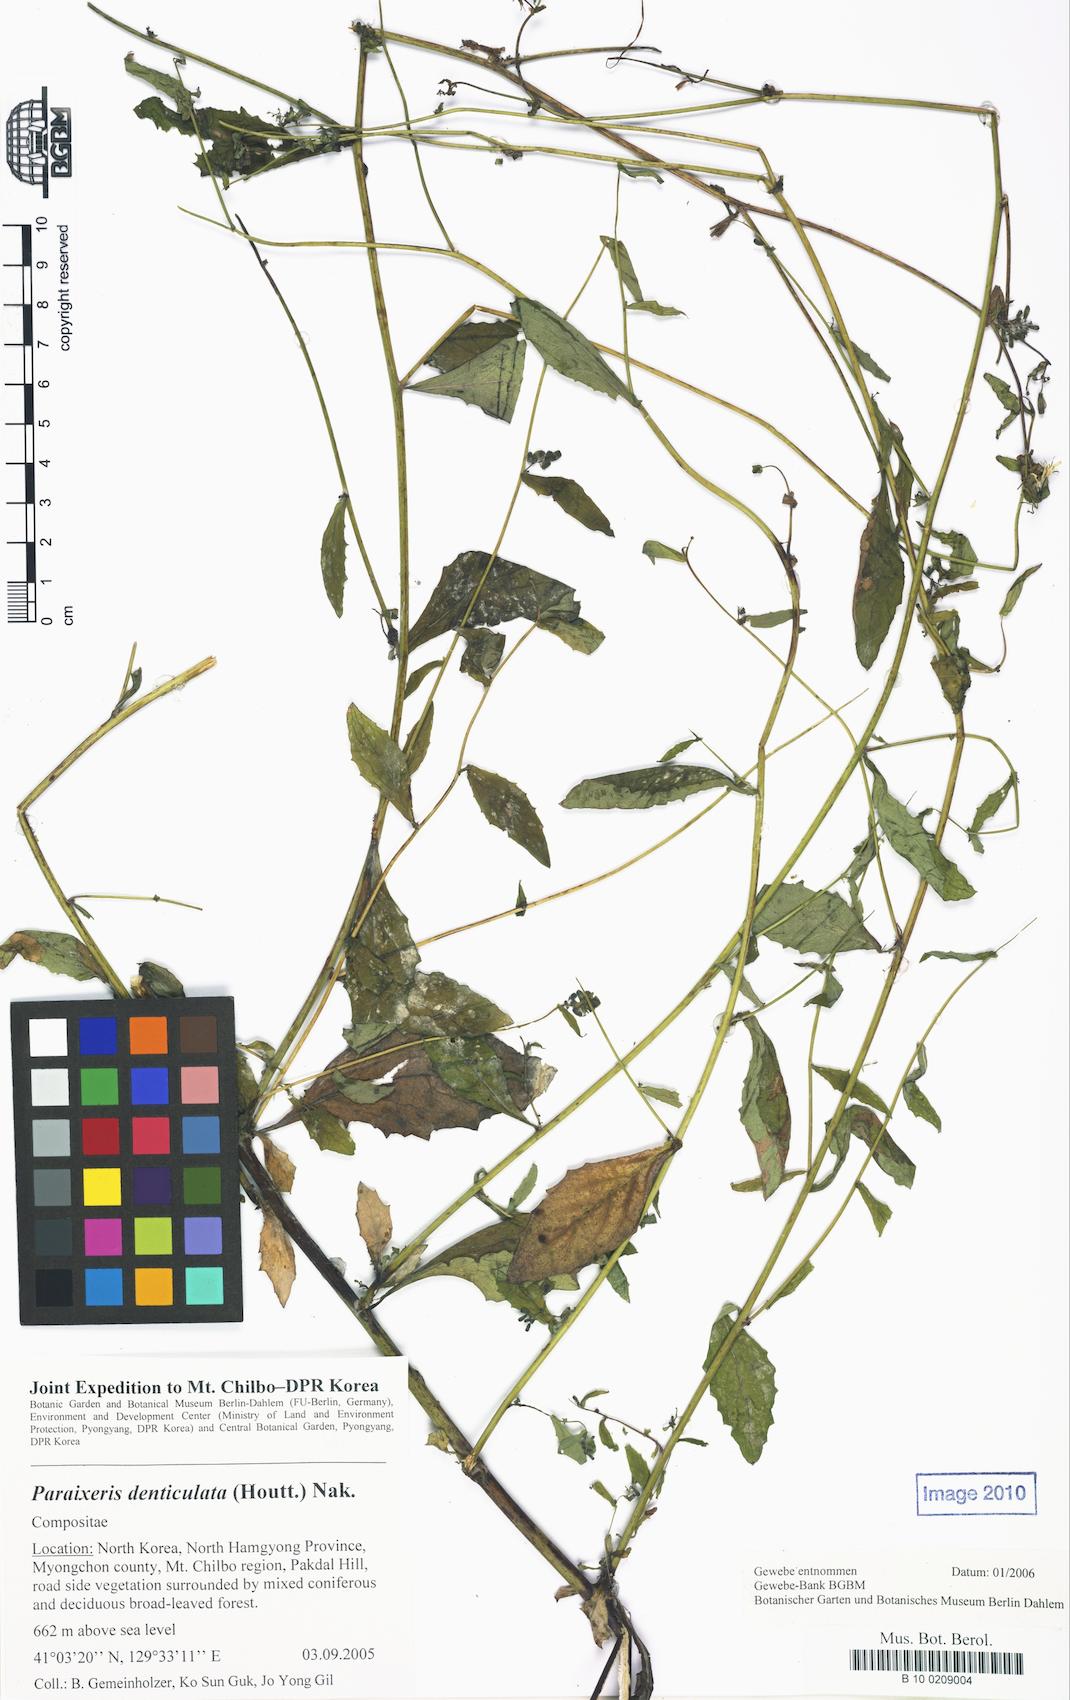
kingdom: Plantae
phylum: Tracheophyta
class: Magnoliopsida
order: Asterales
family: Asteraceae
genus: Crepidiastrum
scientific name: Crepidiastrum denticulatum
